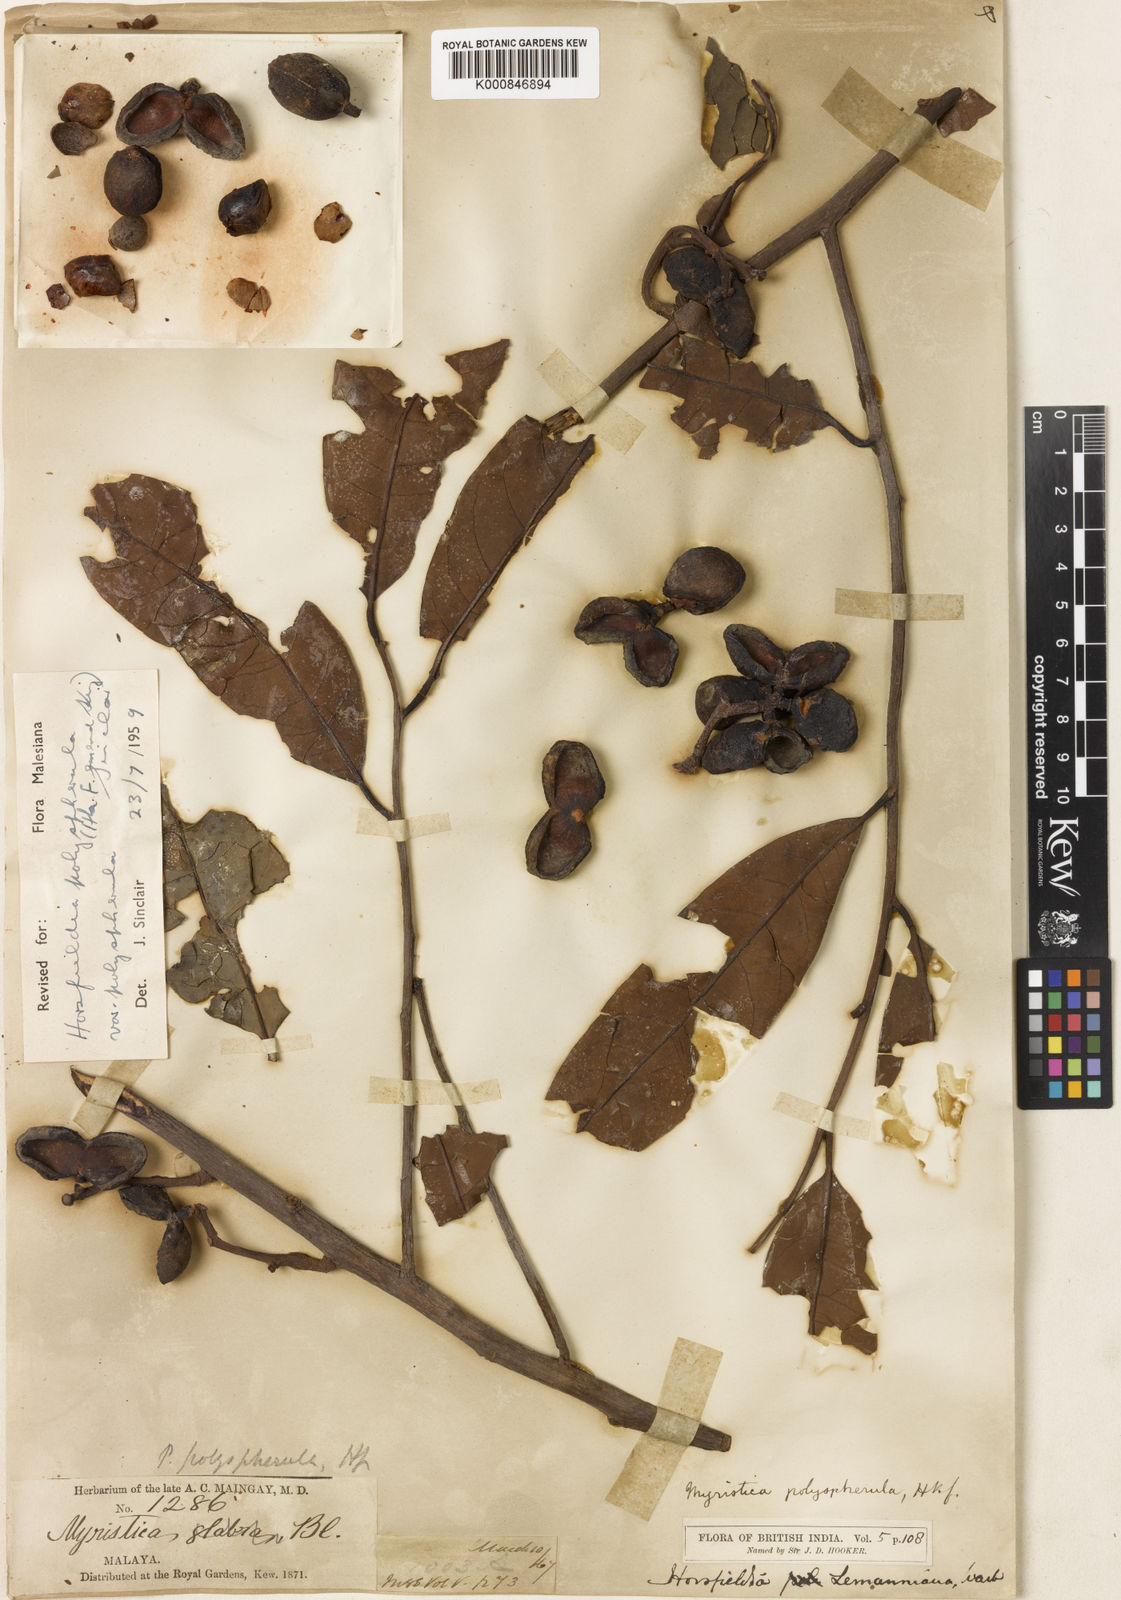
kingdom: Plantae
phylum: Tracheophyta
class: Magnoliopsida
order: Magnoliales
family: Myristicaceae
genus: Horsfieldia
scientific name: Horsfieldia polyspherula
